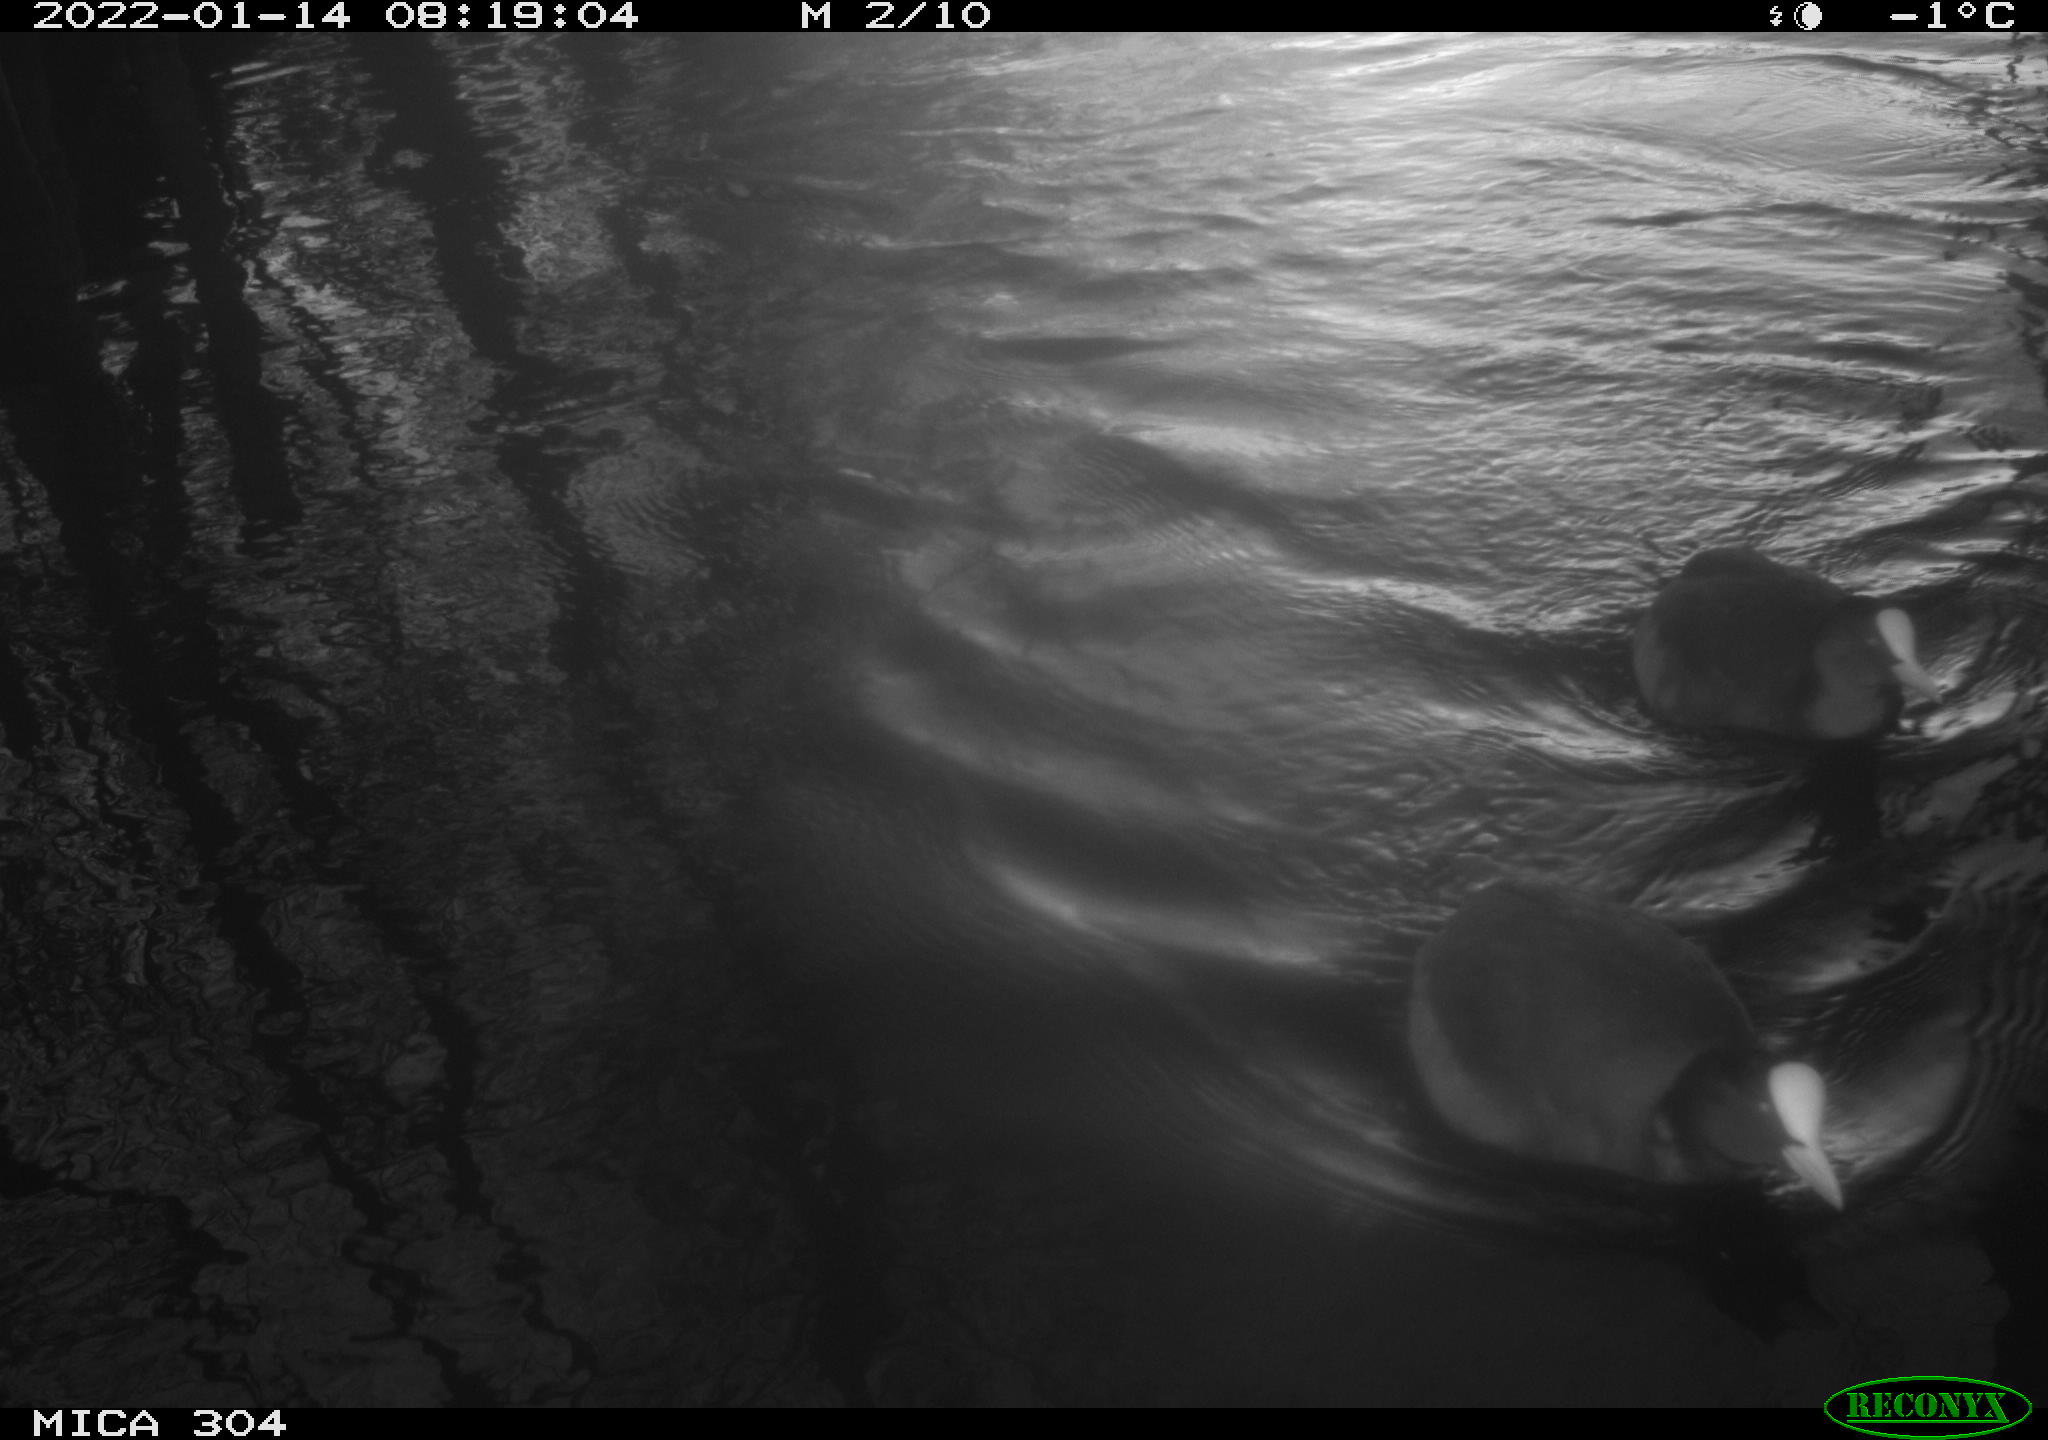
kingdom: Animalia
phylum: Chordata
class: Aves
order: Gruiformes
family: Rallidae
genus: Fulica
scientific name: Fulica atra
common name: Eurasian coot
